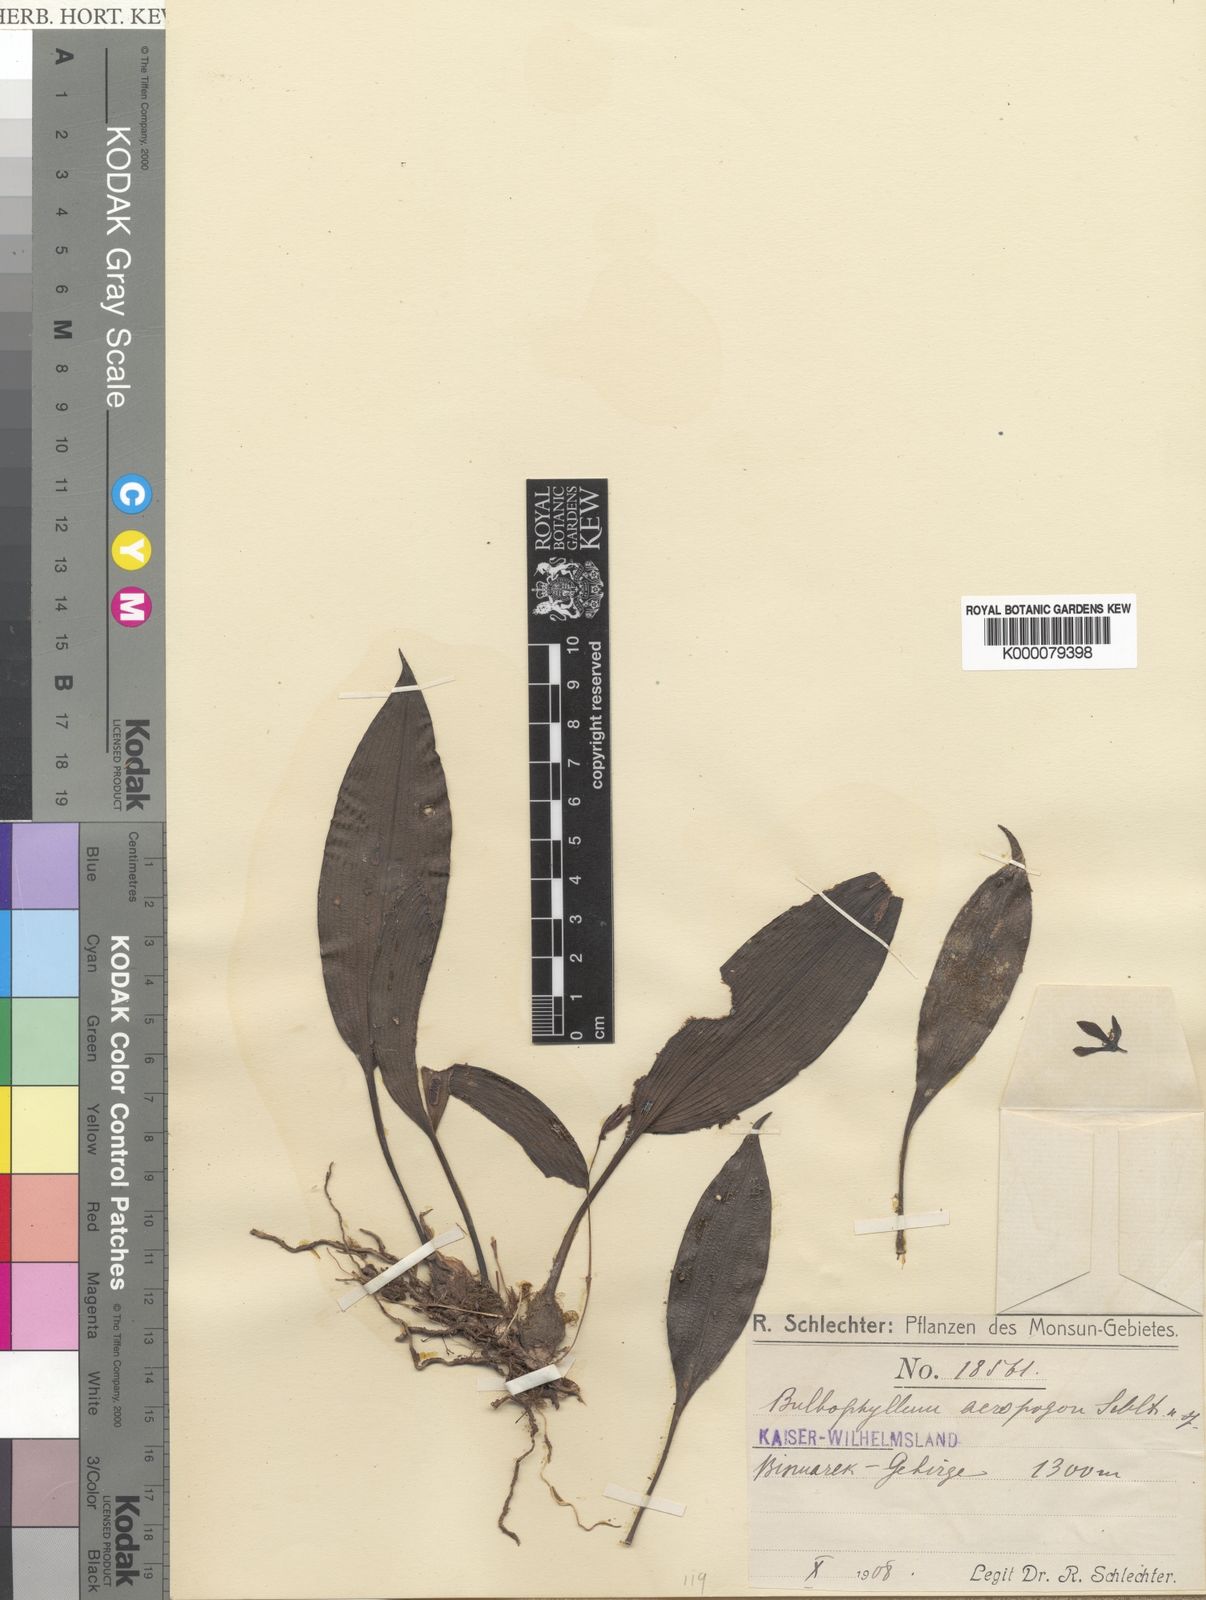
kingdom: Plantae
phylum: Tracheophyta
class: Liliopsida
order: Asparagales
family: Orchidaceae
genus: Bulbophyllum
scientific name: Bulbophyllum acropogon
